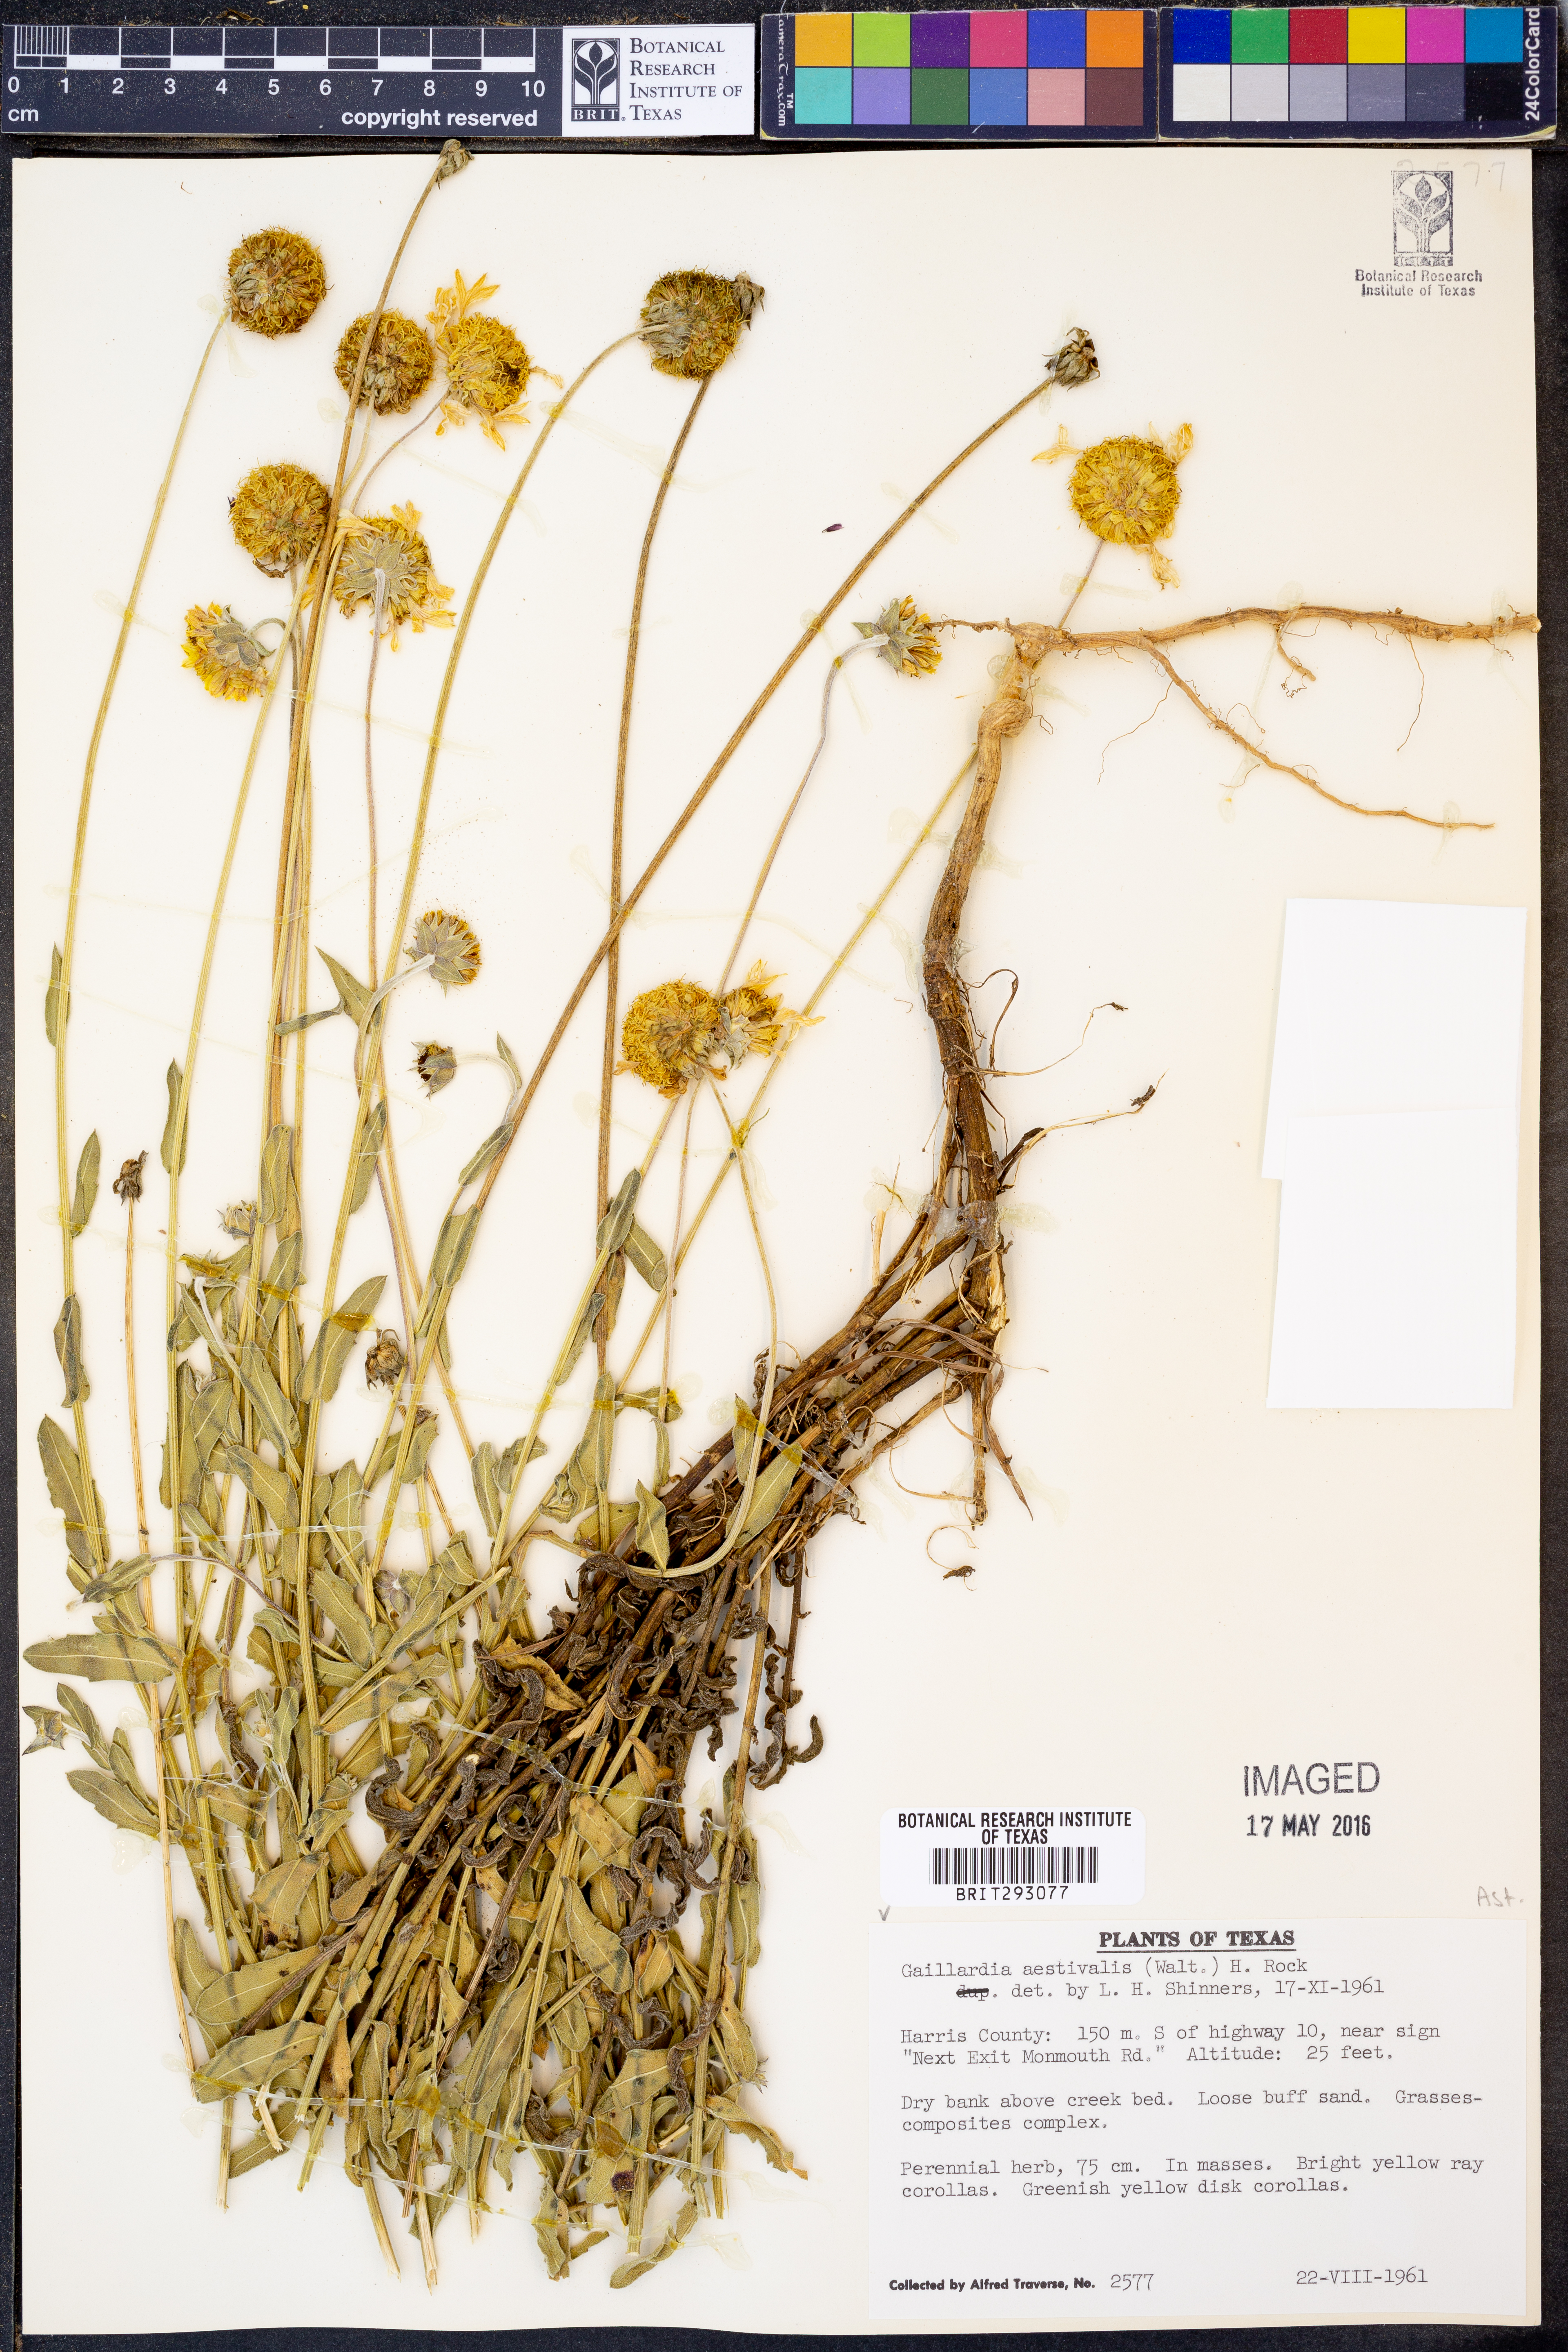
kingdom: Plantae
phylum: Tracheophyta
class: Magnoliopsida
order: Asterales
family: Asteraceae
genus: Gaillardia
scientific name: Gaillardia aestivalis
